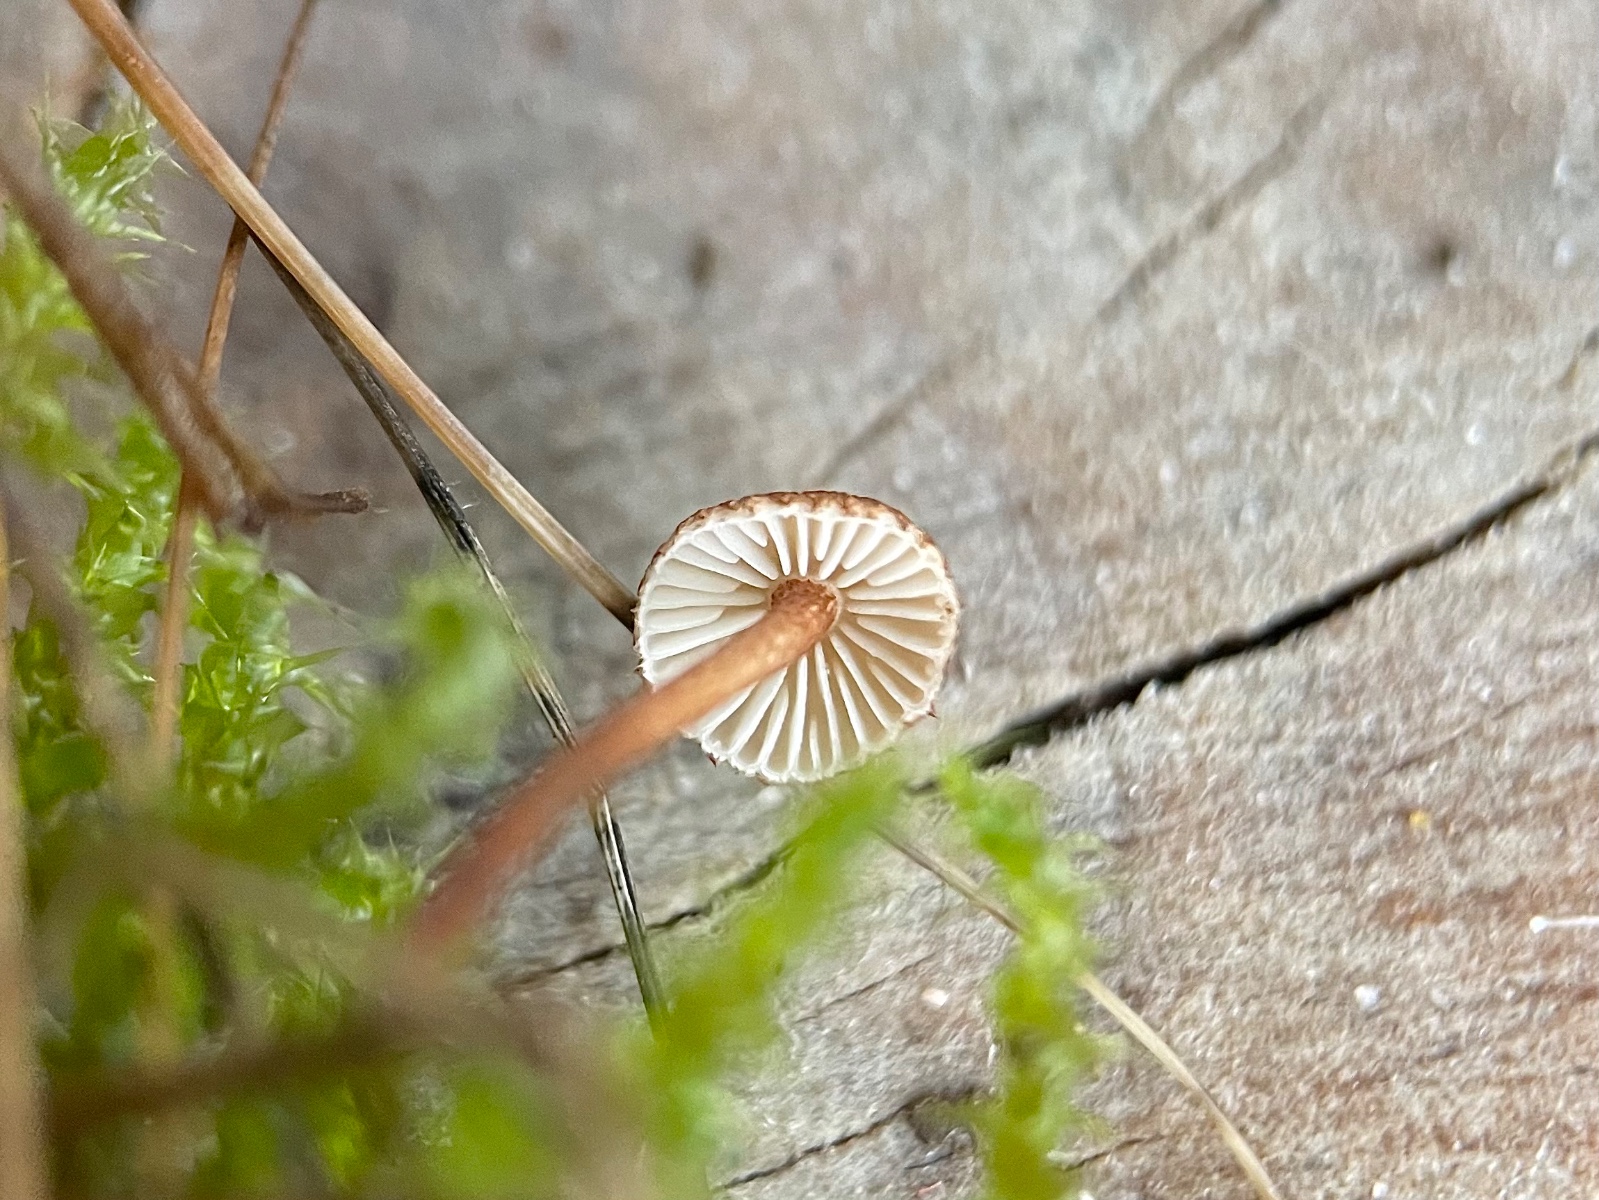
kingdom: Fungi
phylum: Basidiomycota
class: Agaricomycetes
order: Agaricales
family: Marasmiaceae
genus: Crinipellis
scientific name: Crinipellis scabella
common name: børstefod
